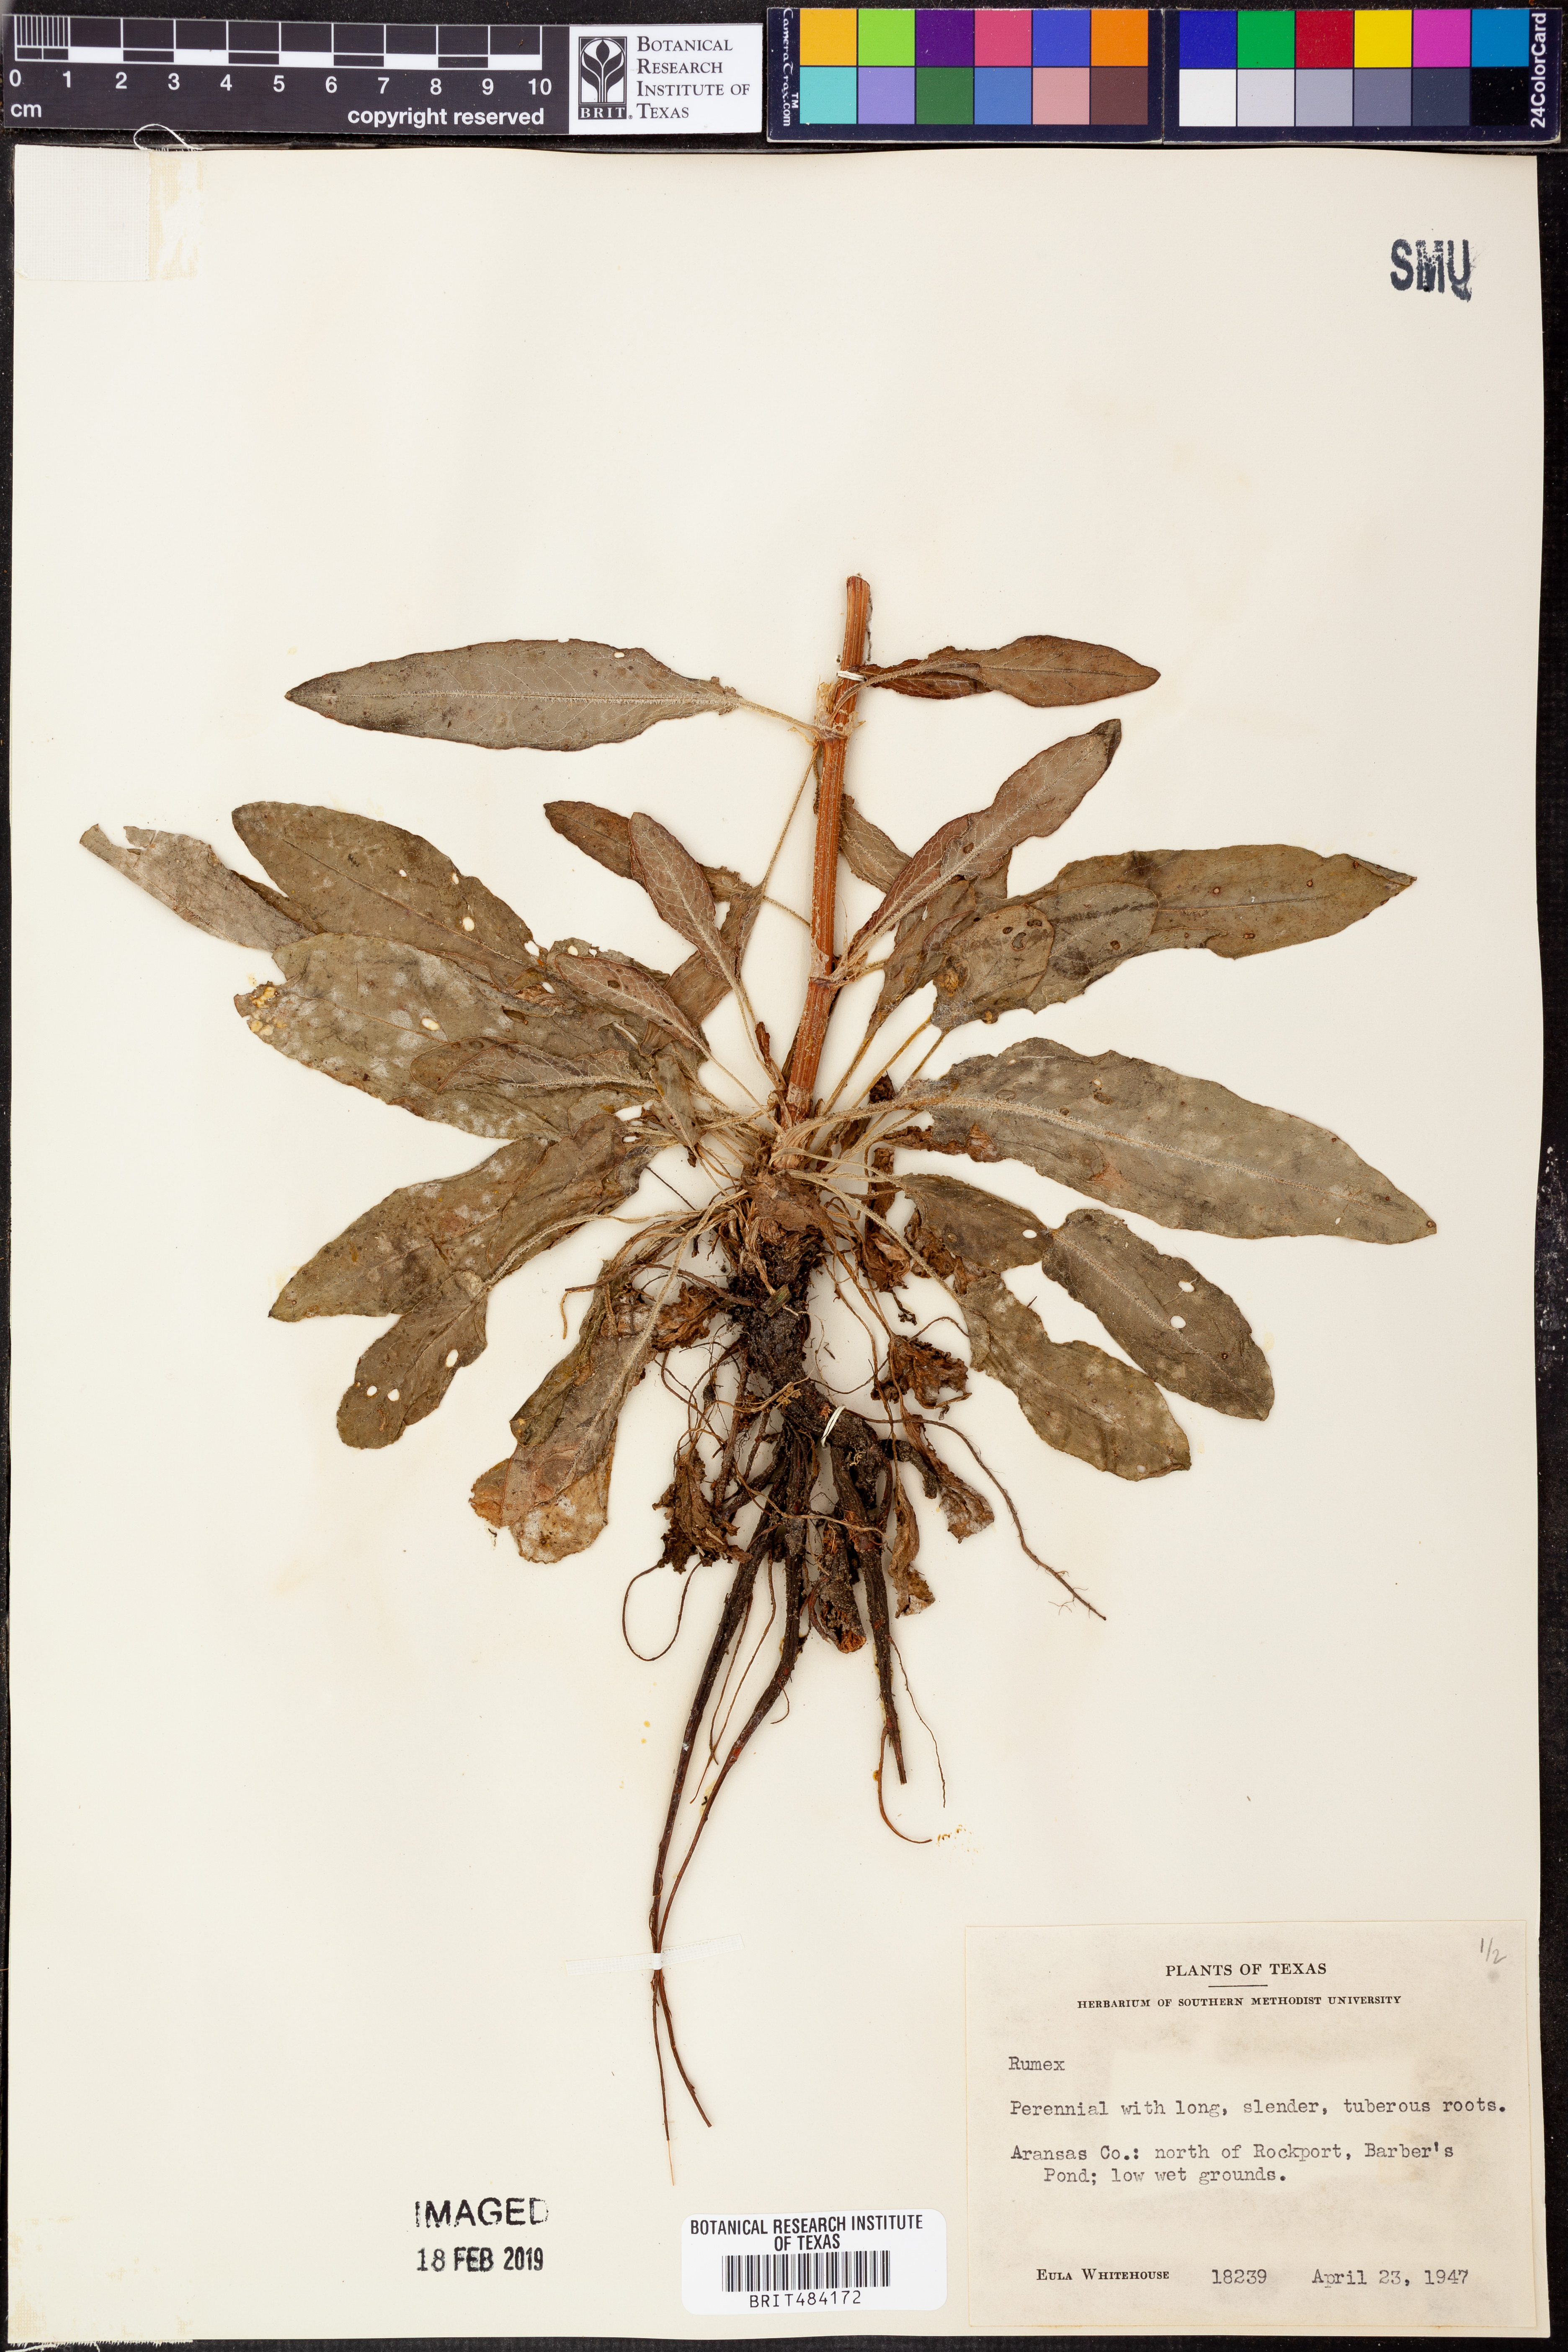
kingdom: Plantae
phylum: Tracheophyta
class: Magnoliopsida
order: Caryophyllales
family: Polygonaceae
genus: Rumex
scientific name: Rumex
